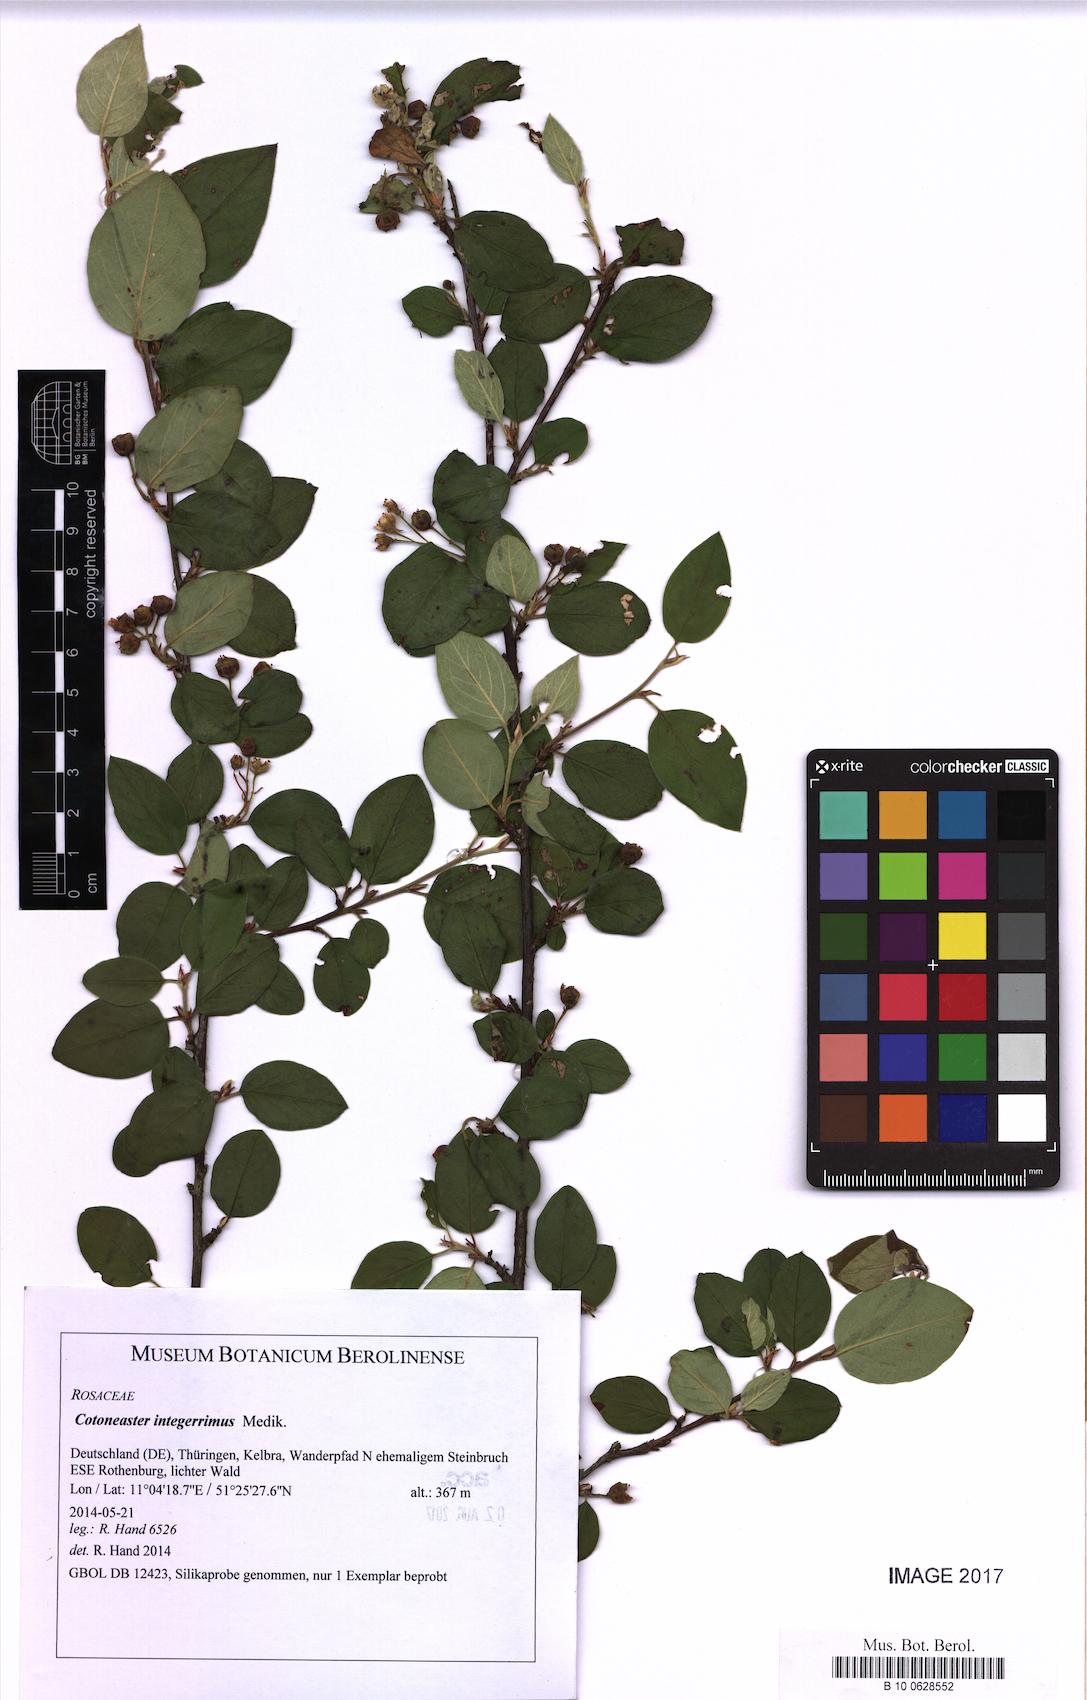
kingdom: Plantae
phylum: Tracheophyta
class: Magnoliopsida
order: Rosales
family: Rosaceae
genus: Cotoneaster
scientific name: Cotoneaster integerrimus
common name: Wild cotoneaster
